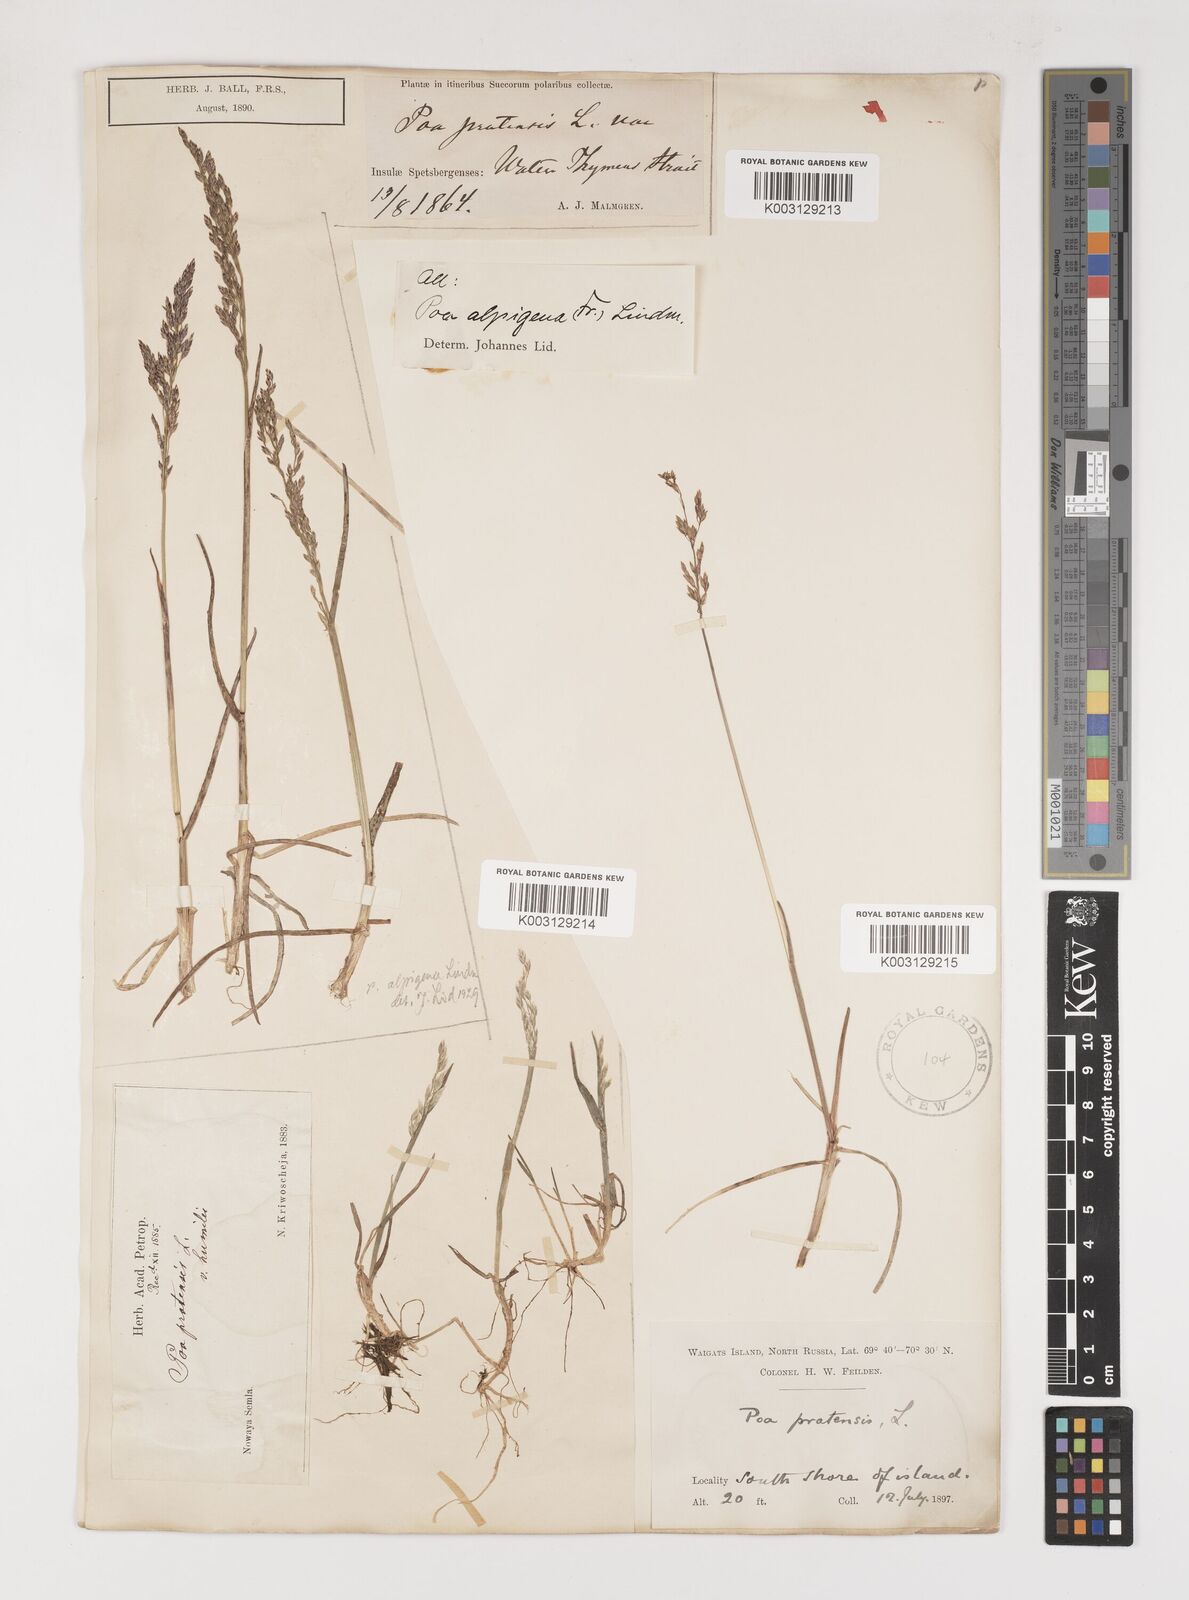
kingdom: Plantae
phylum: Tracheophyta
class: Liliopsida
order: Poales
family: Poaceae
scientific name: Poaceae
